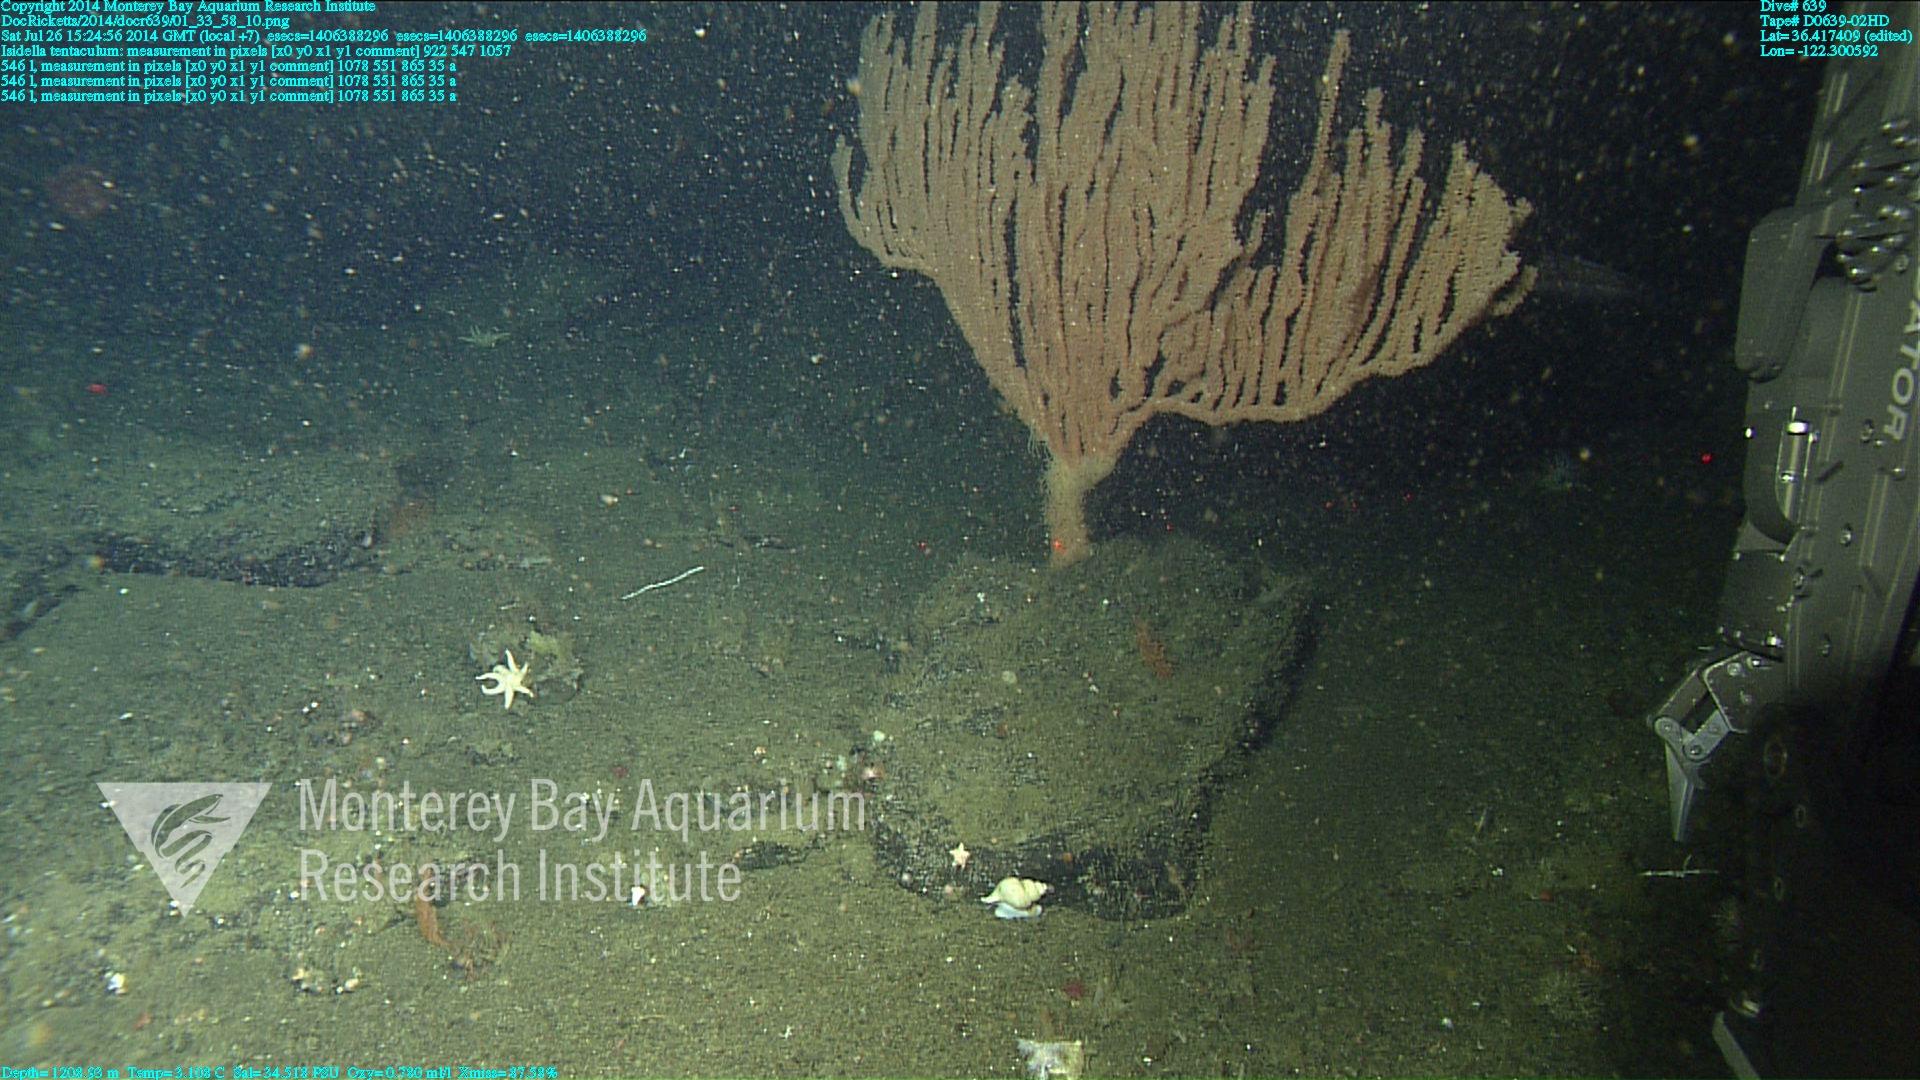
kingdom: Animalia
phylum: Cnidaria
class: Anthozoa
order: Scleralcyonacea
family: Keratoisididae
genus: Isidella
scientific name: Isidella tentaculum
